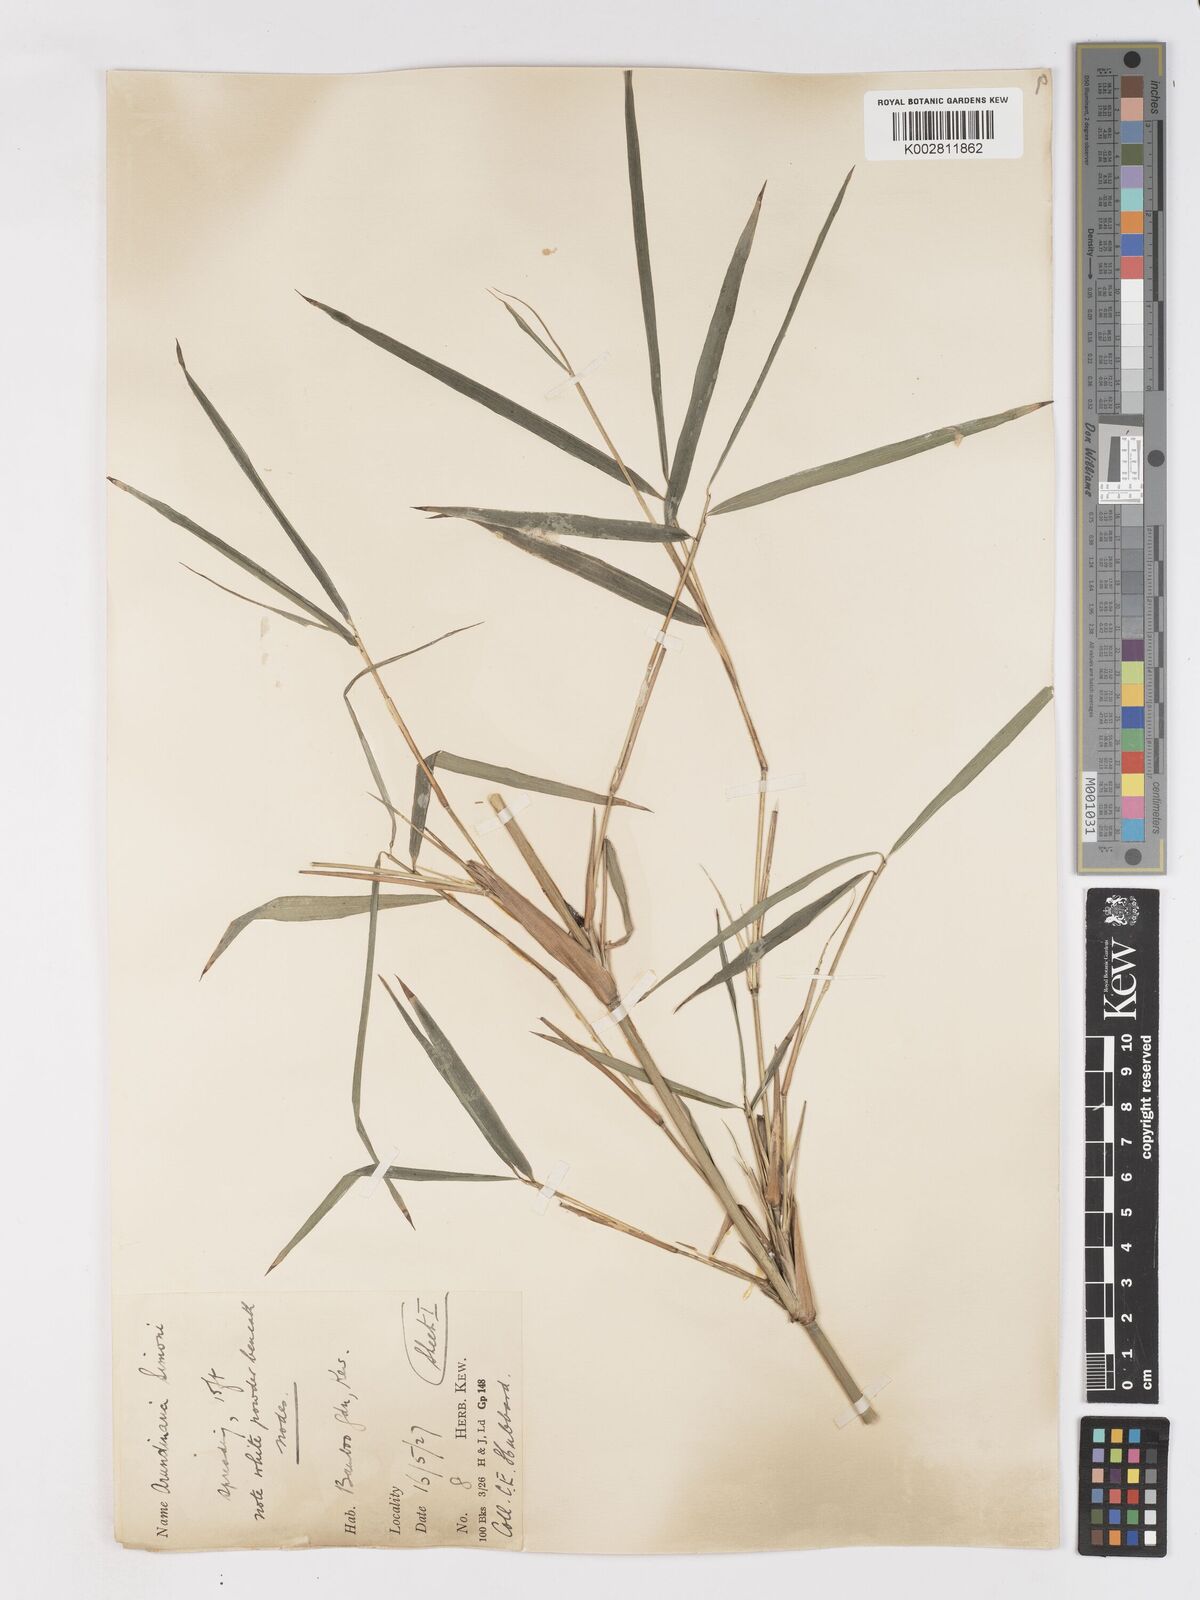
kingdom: Plantae
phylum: Tracheophyta
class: Liliopsida
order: Poales
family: Poaceae
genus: Pleioblastus
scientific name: Pleioblastus simonii
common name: Simon bamboo
